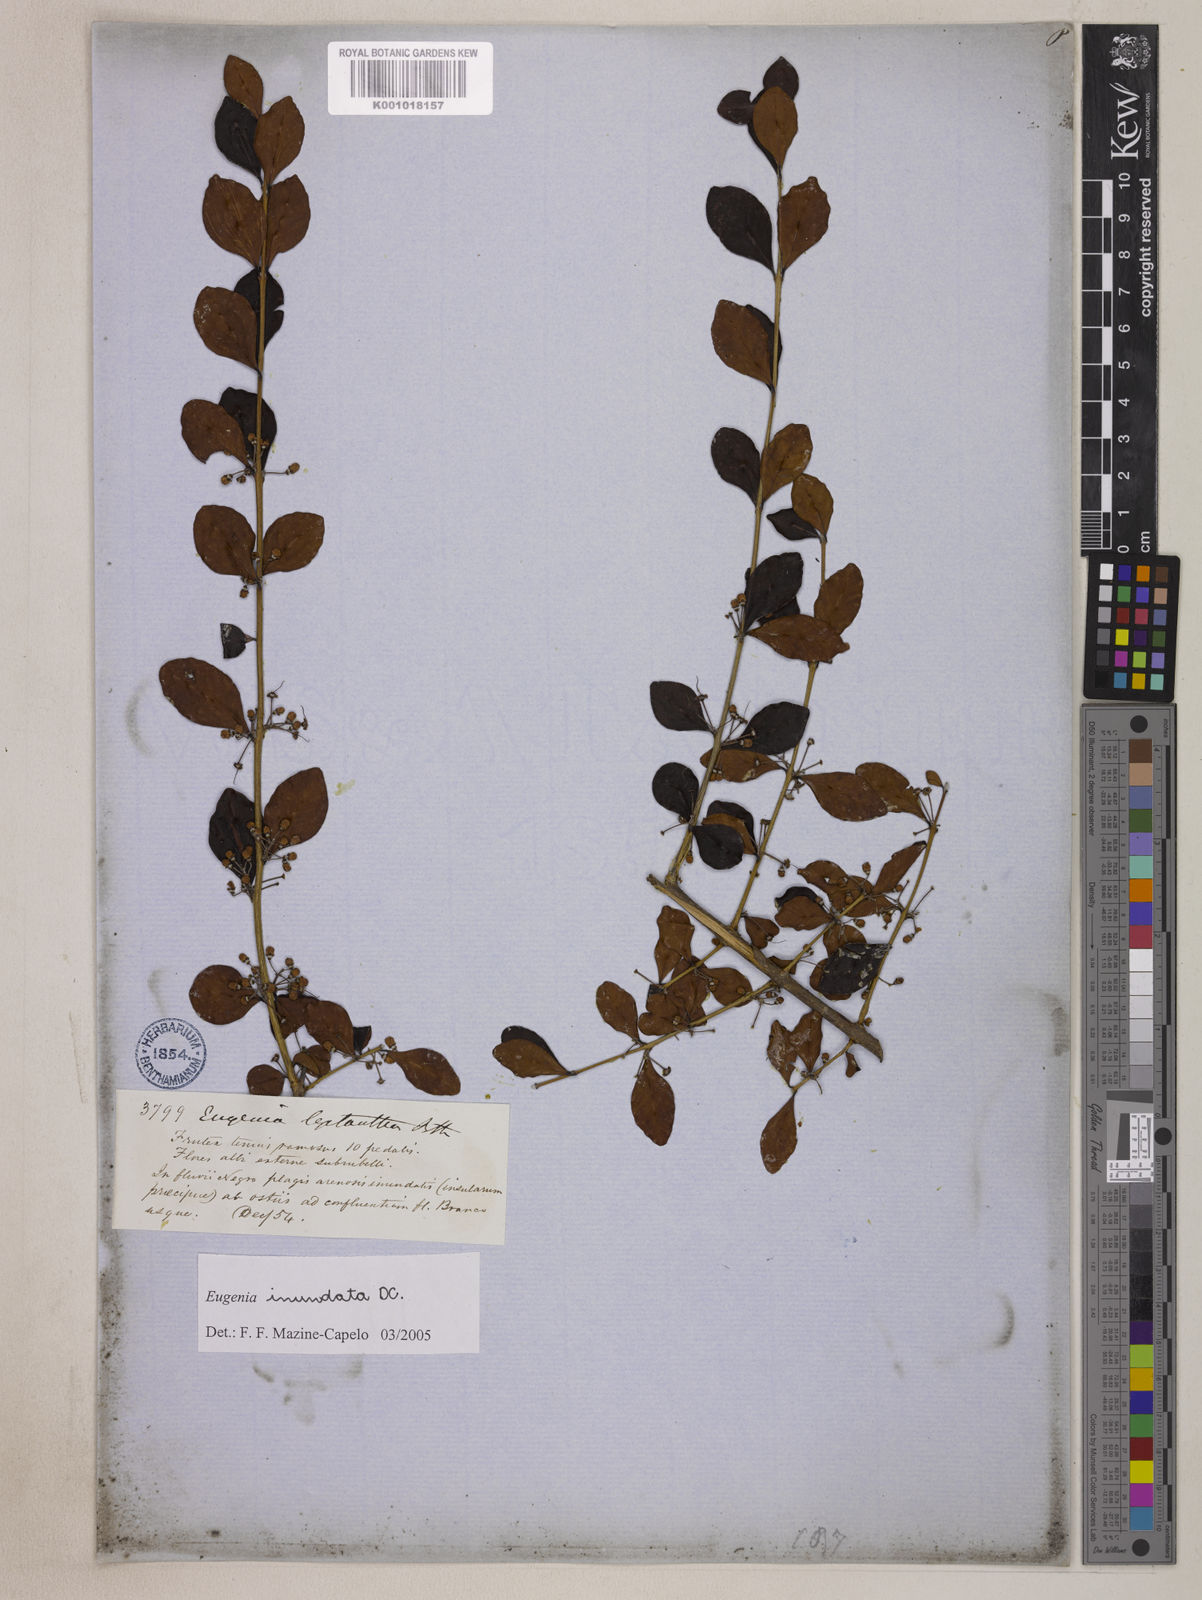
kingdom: Plantae
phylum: Tracheophyta
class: Magnoliopsida
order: Myrtales
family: Myrtaceae
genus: Eugenia
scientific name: Eugenia inundata
